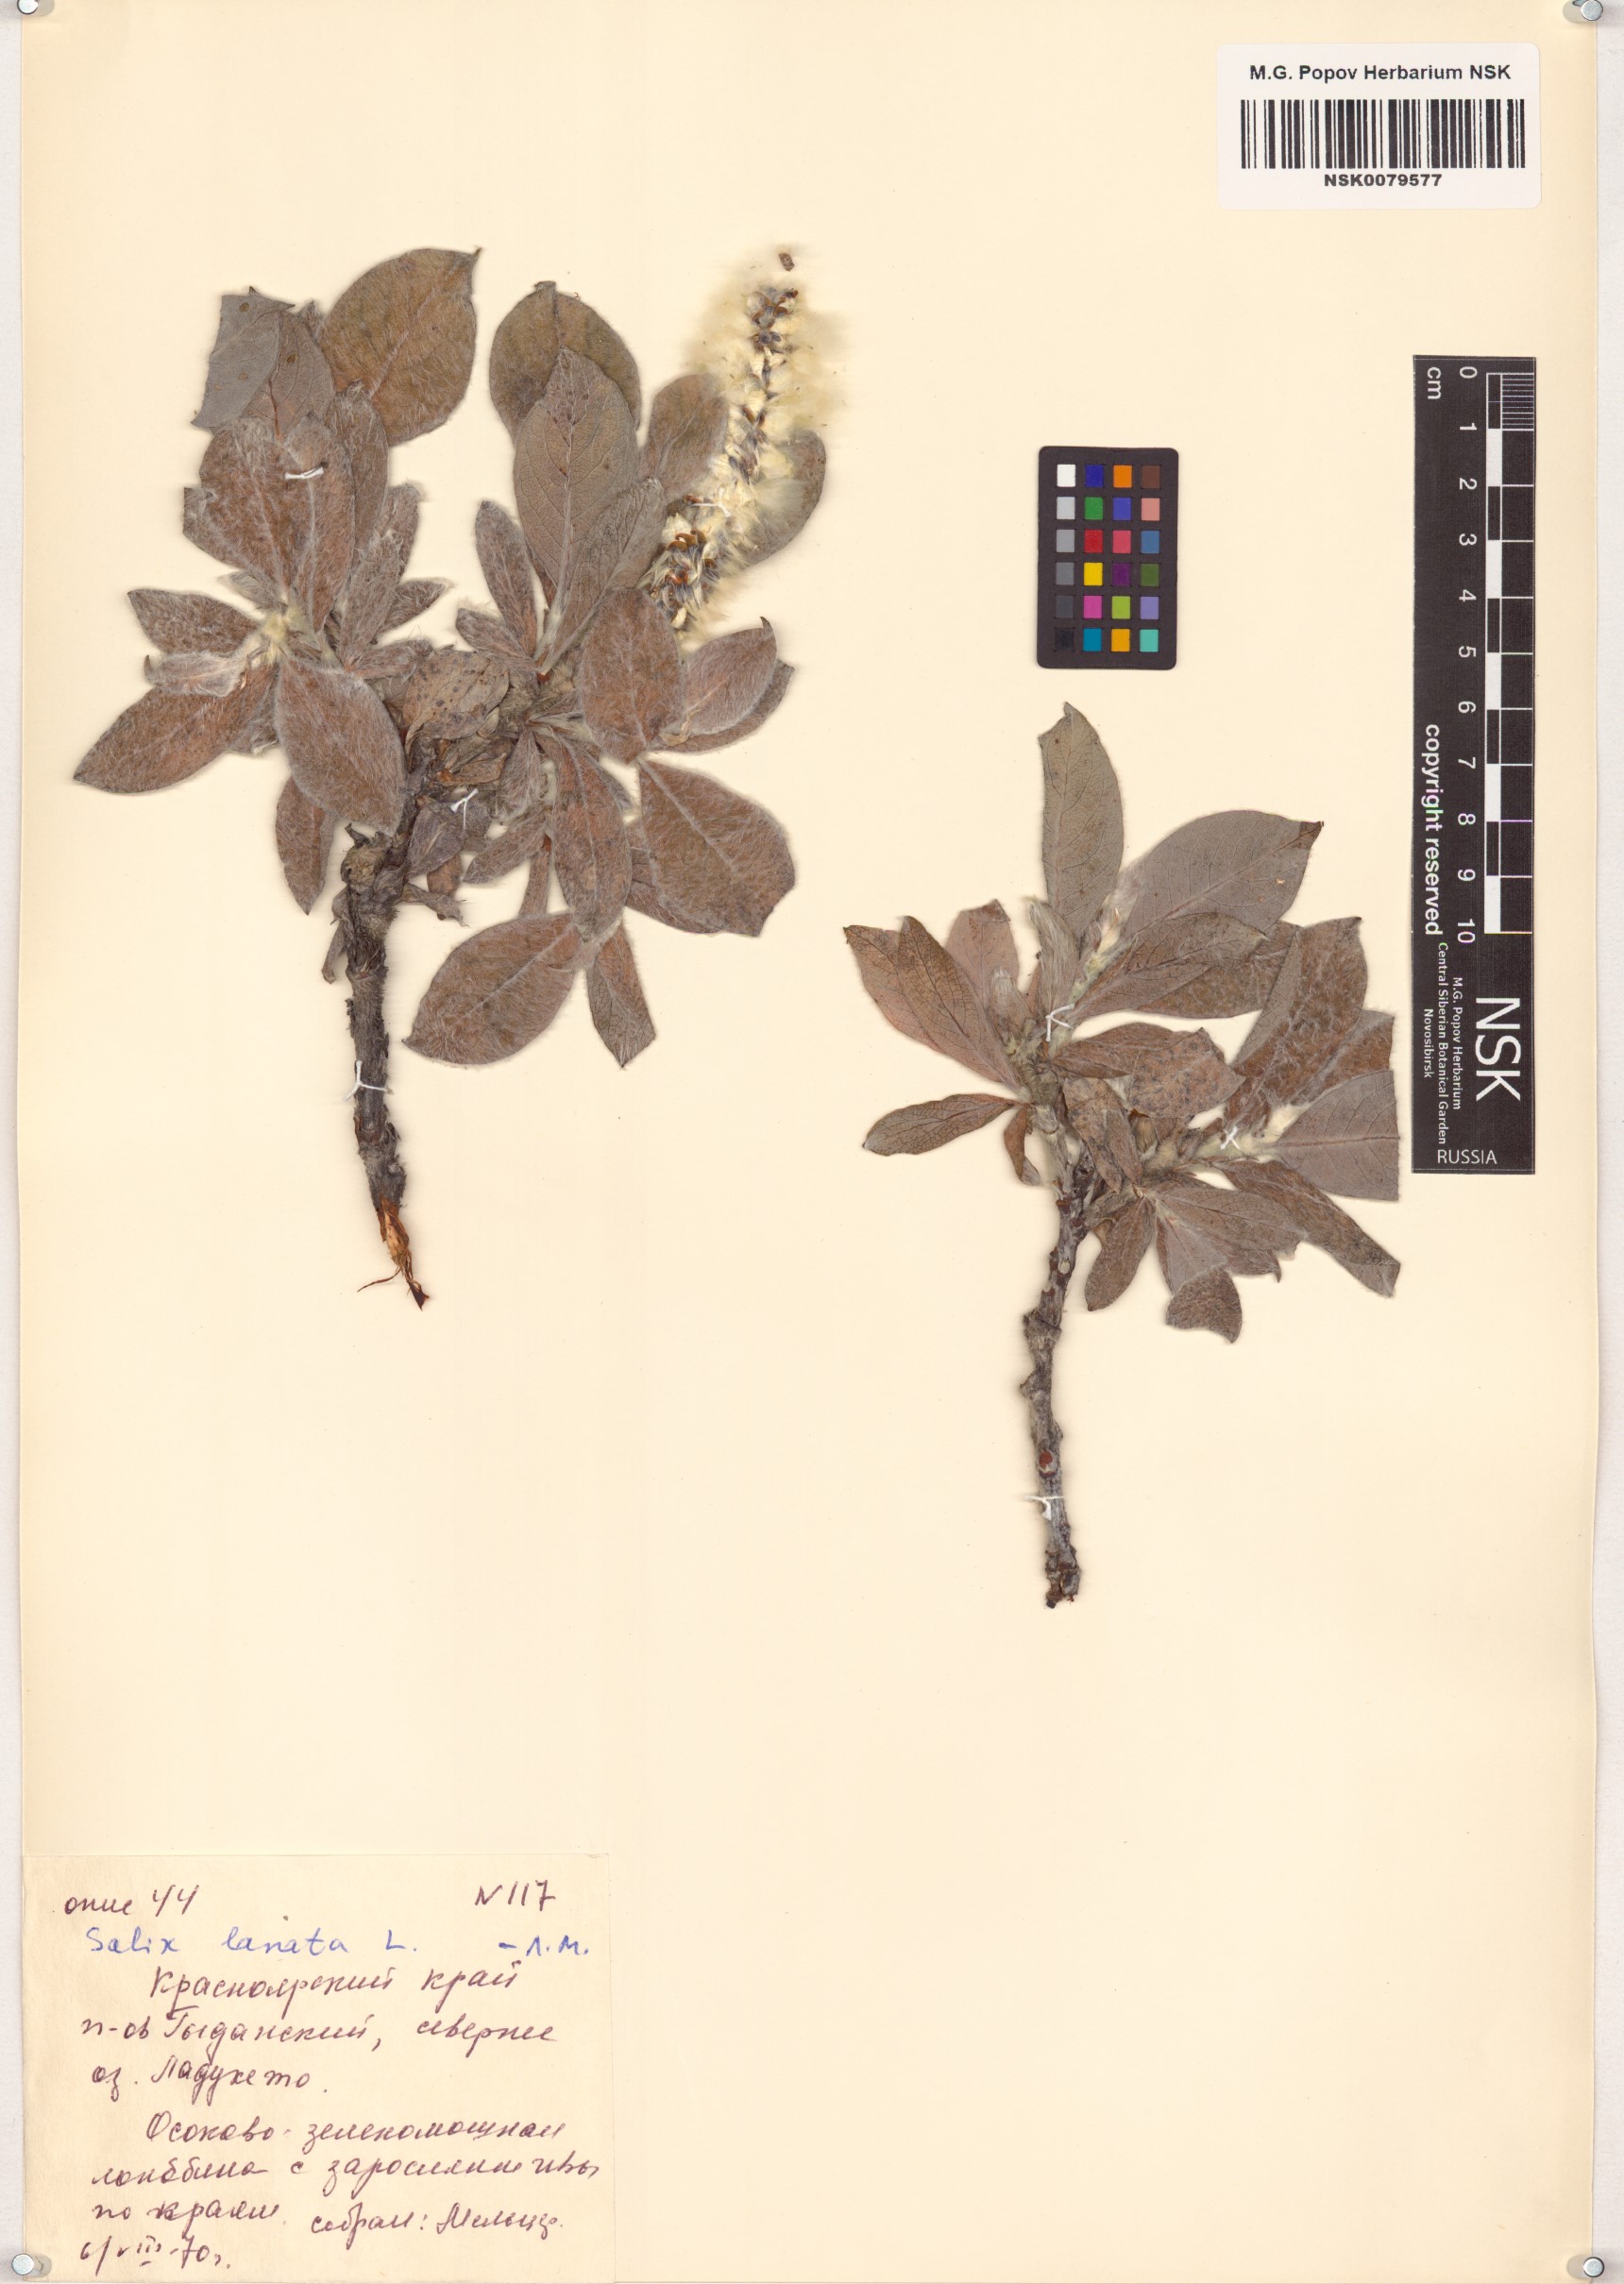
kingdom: Plantae
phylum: Tracheophyta
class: Magnoliopsida
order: Malpighiales
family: Salicaceae
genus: Salix
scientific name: Salix lanata
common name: Woolly willow
